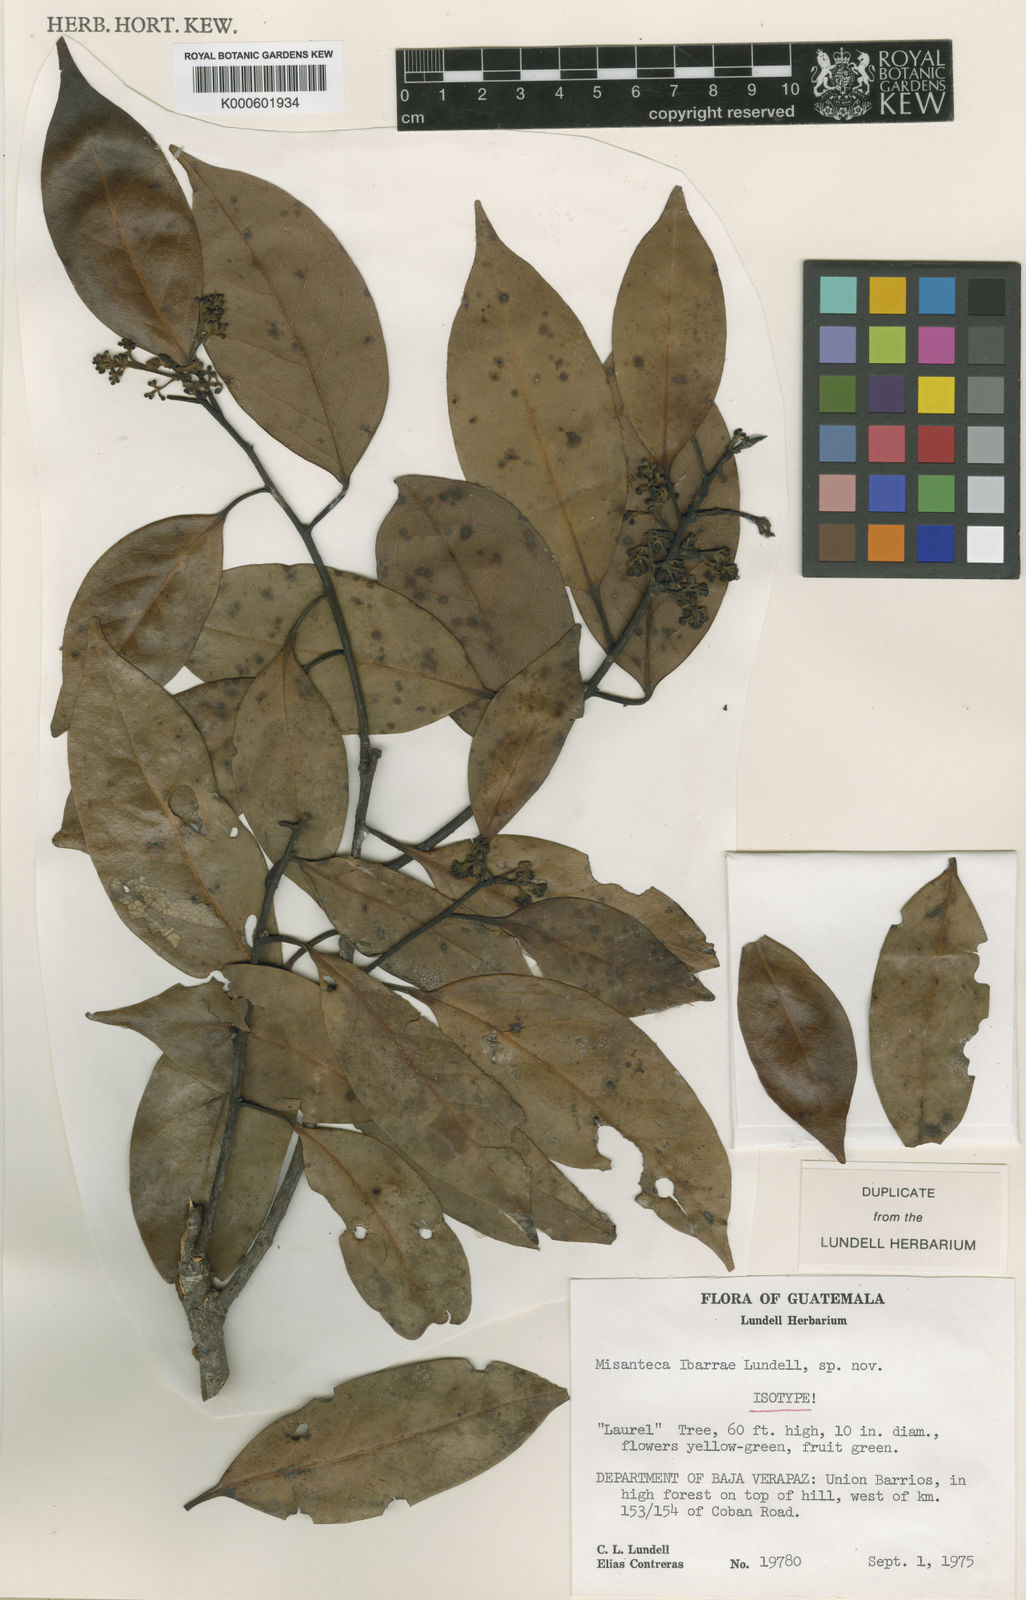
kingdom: Plantae
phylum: Tracheophyta
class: Magnoliopsida
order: Laurales
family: Lauraceae
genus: Licaria
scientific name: Licaria ibarrae
